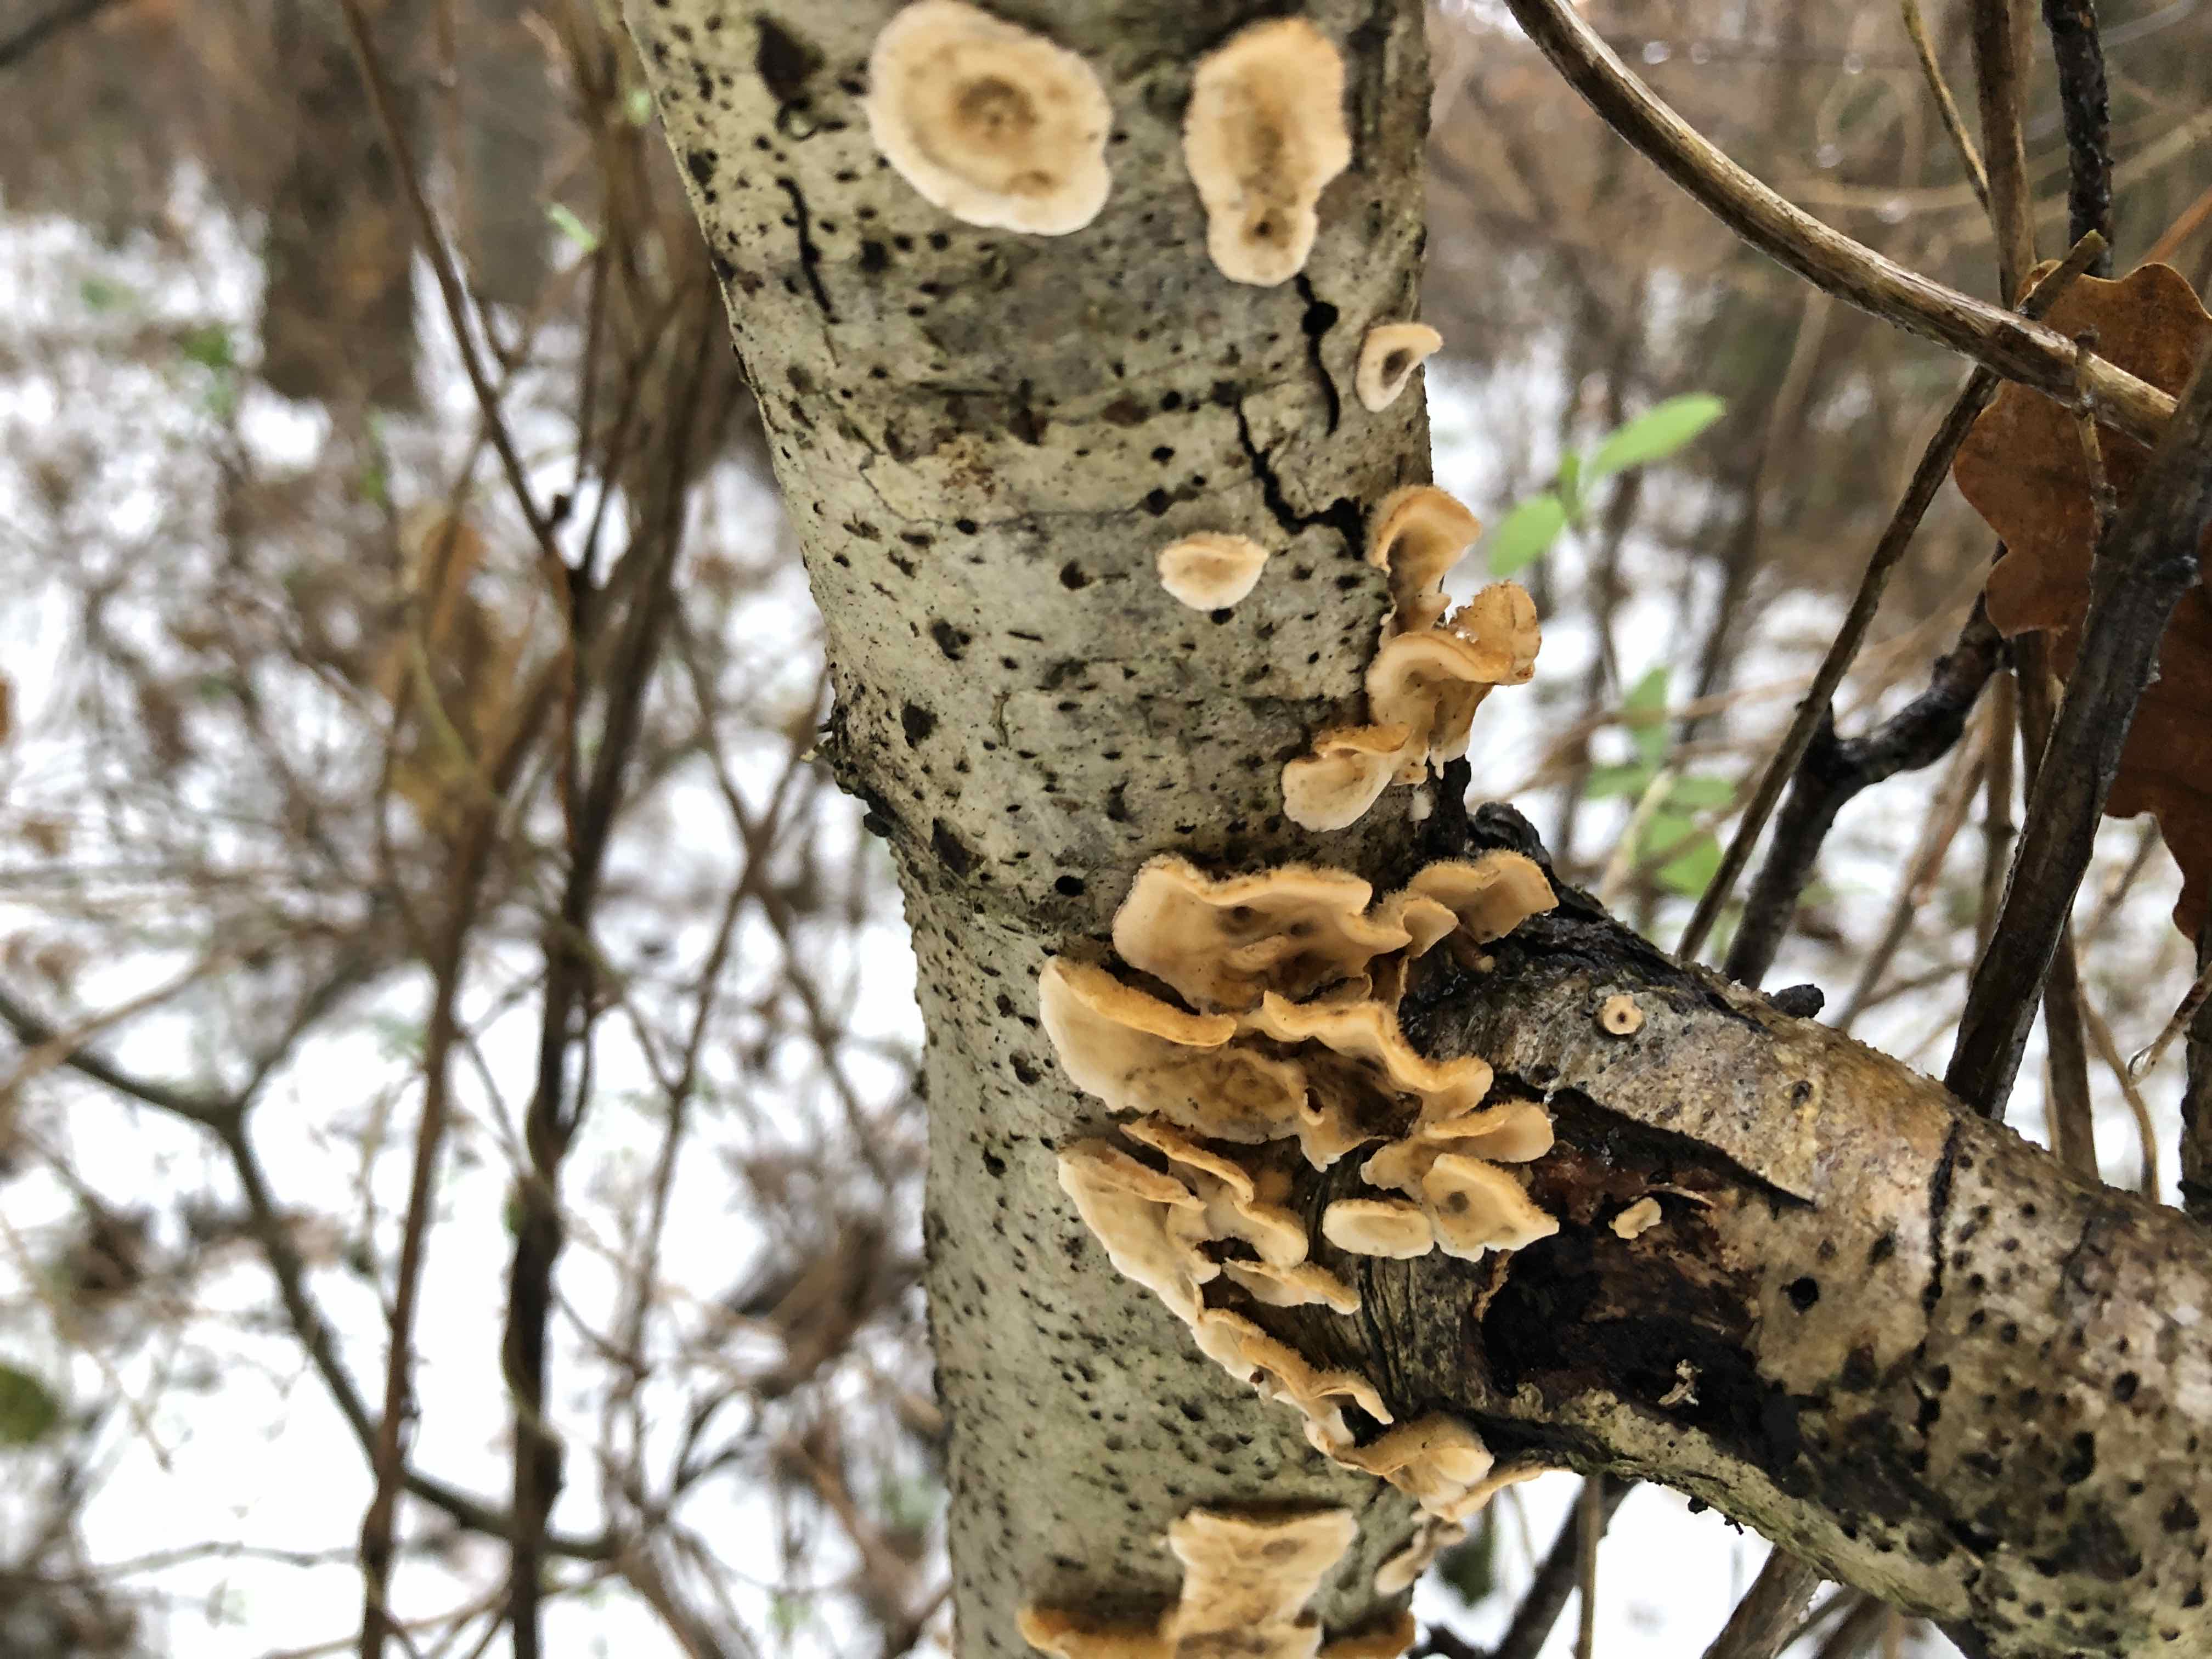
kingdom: Fungi
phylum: Basidiomycota
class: Agaricomycetes
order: Russulales
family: Stereaceae
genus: Stereum
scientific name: Stereum hirsutum
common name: håret lædersvamp
